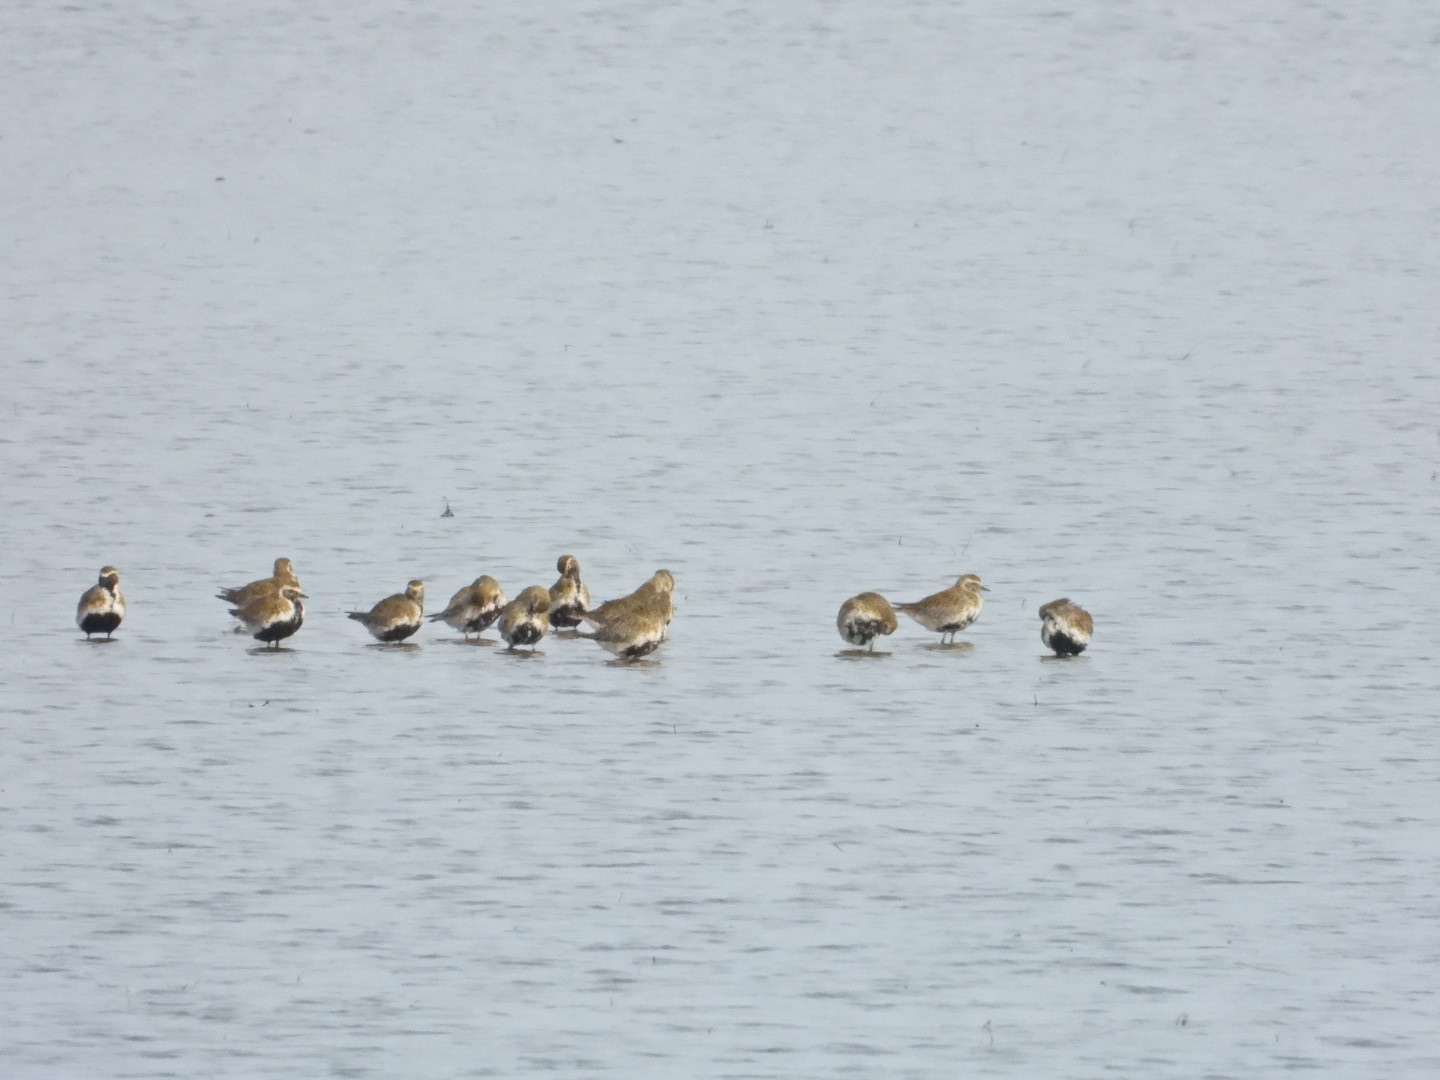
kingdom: Animalia
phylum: Chordata
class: Aves
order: Charadriiformes
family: Charadriidae
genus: Pluvialis
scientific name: Pluvialis apricaria
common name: Hjejle
